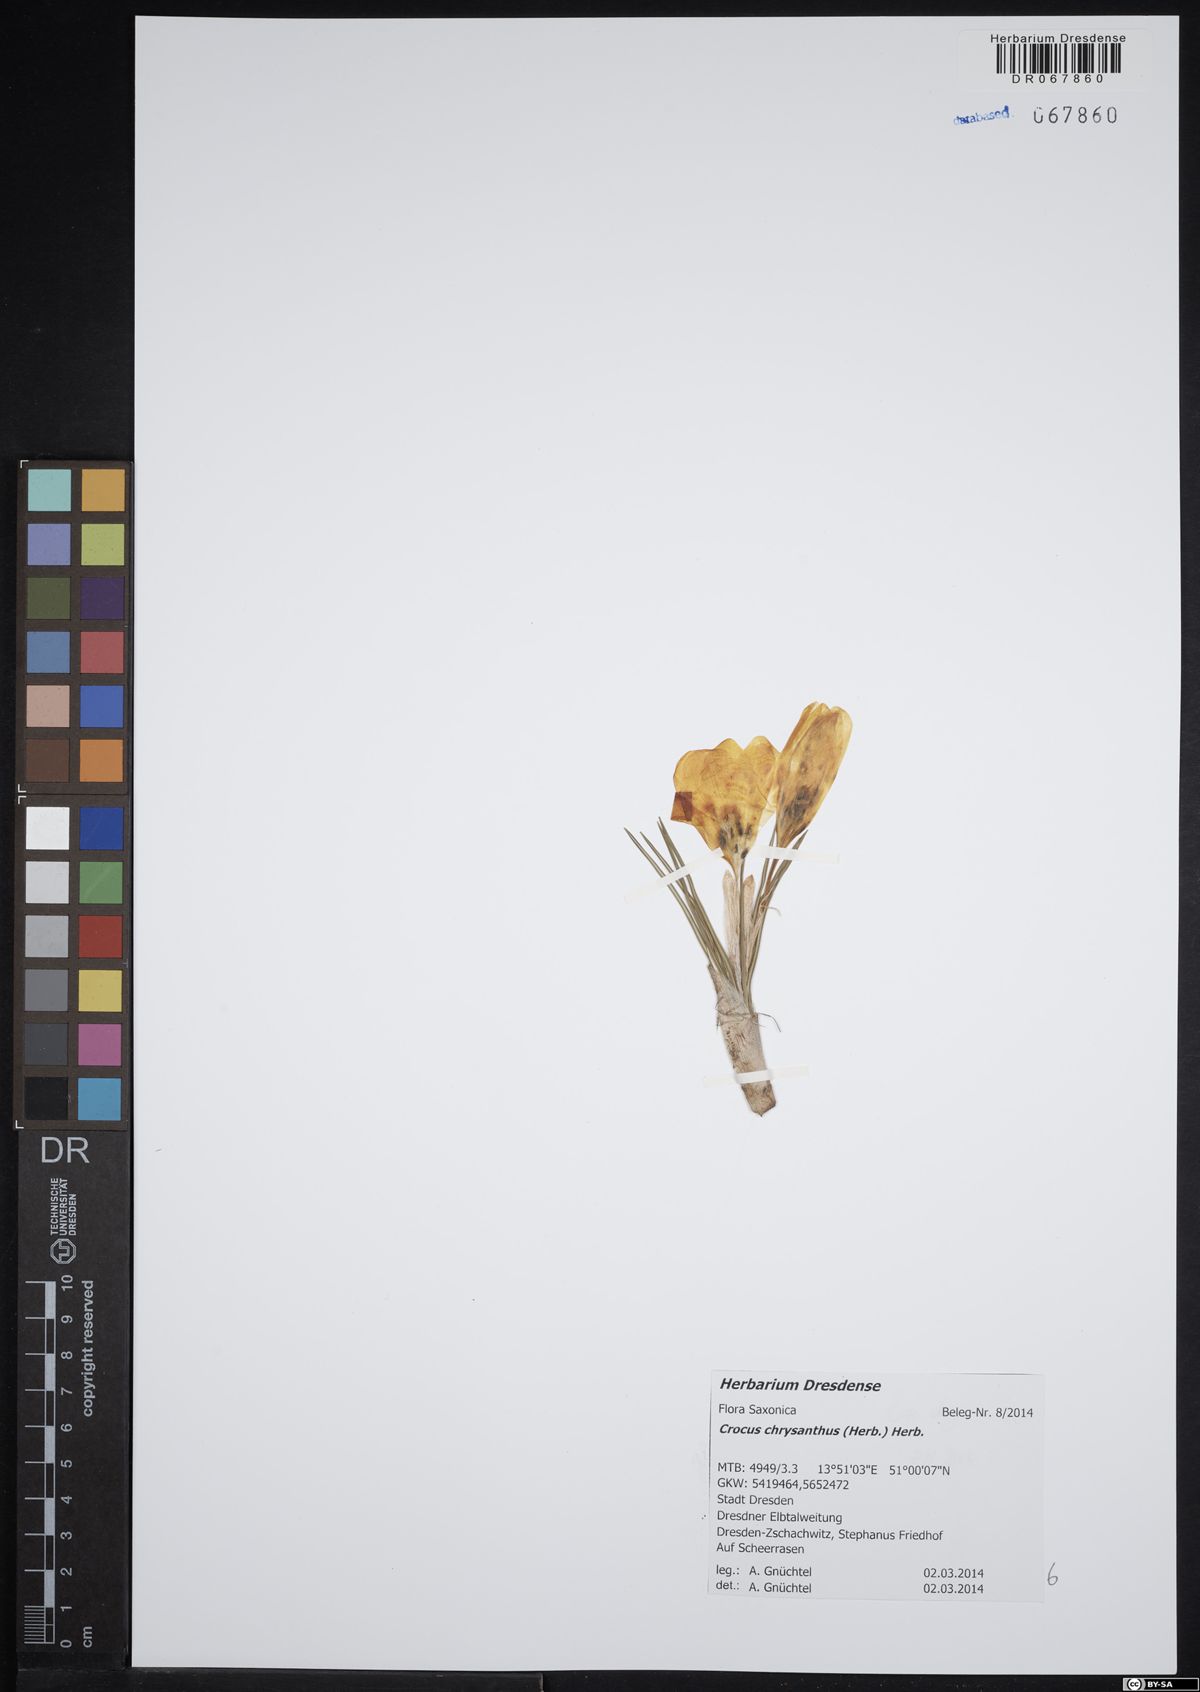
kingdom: Plantae
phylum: Tracheophyta
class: Liliopsida
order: Asparagales
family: Iridaceae
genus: Crocus
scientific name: Crocus chrysanthus
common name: Golden crocus
